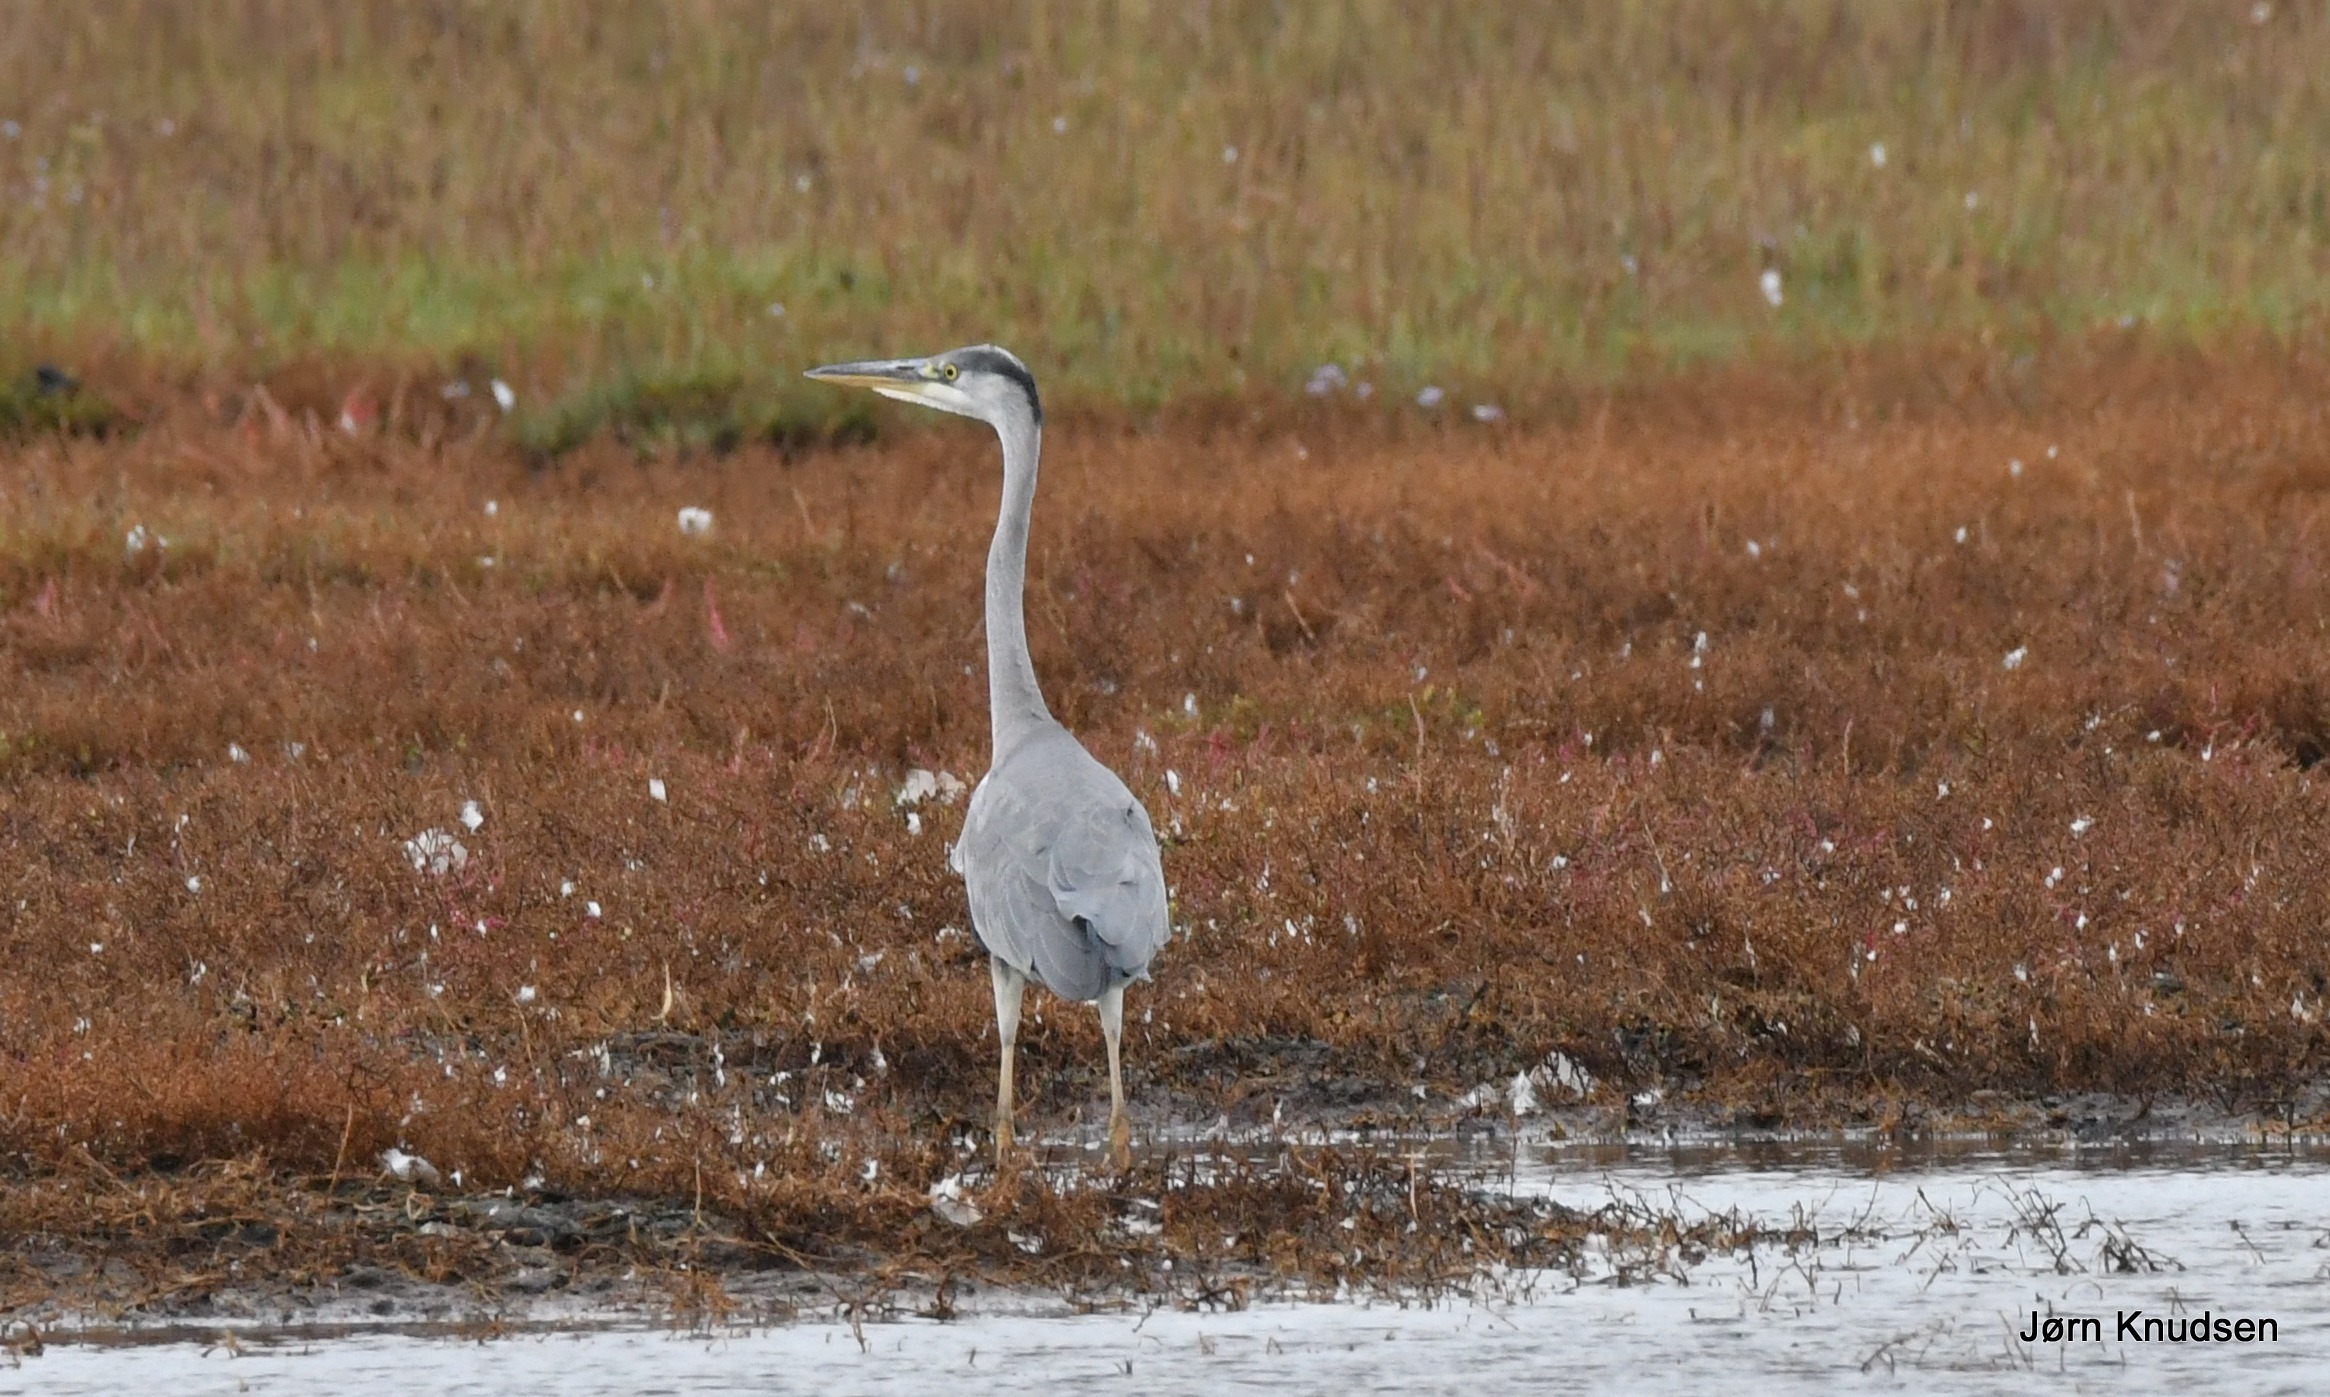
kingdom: Animalia
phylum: Chordata
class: Aves
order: Pelecaniformes
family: Ardeidae
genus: Ardea
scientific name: Ardea cinerea
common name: Fiskehejre
